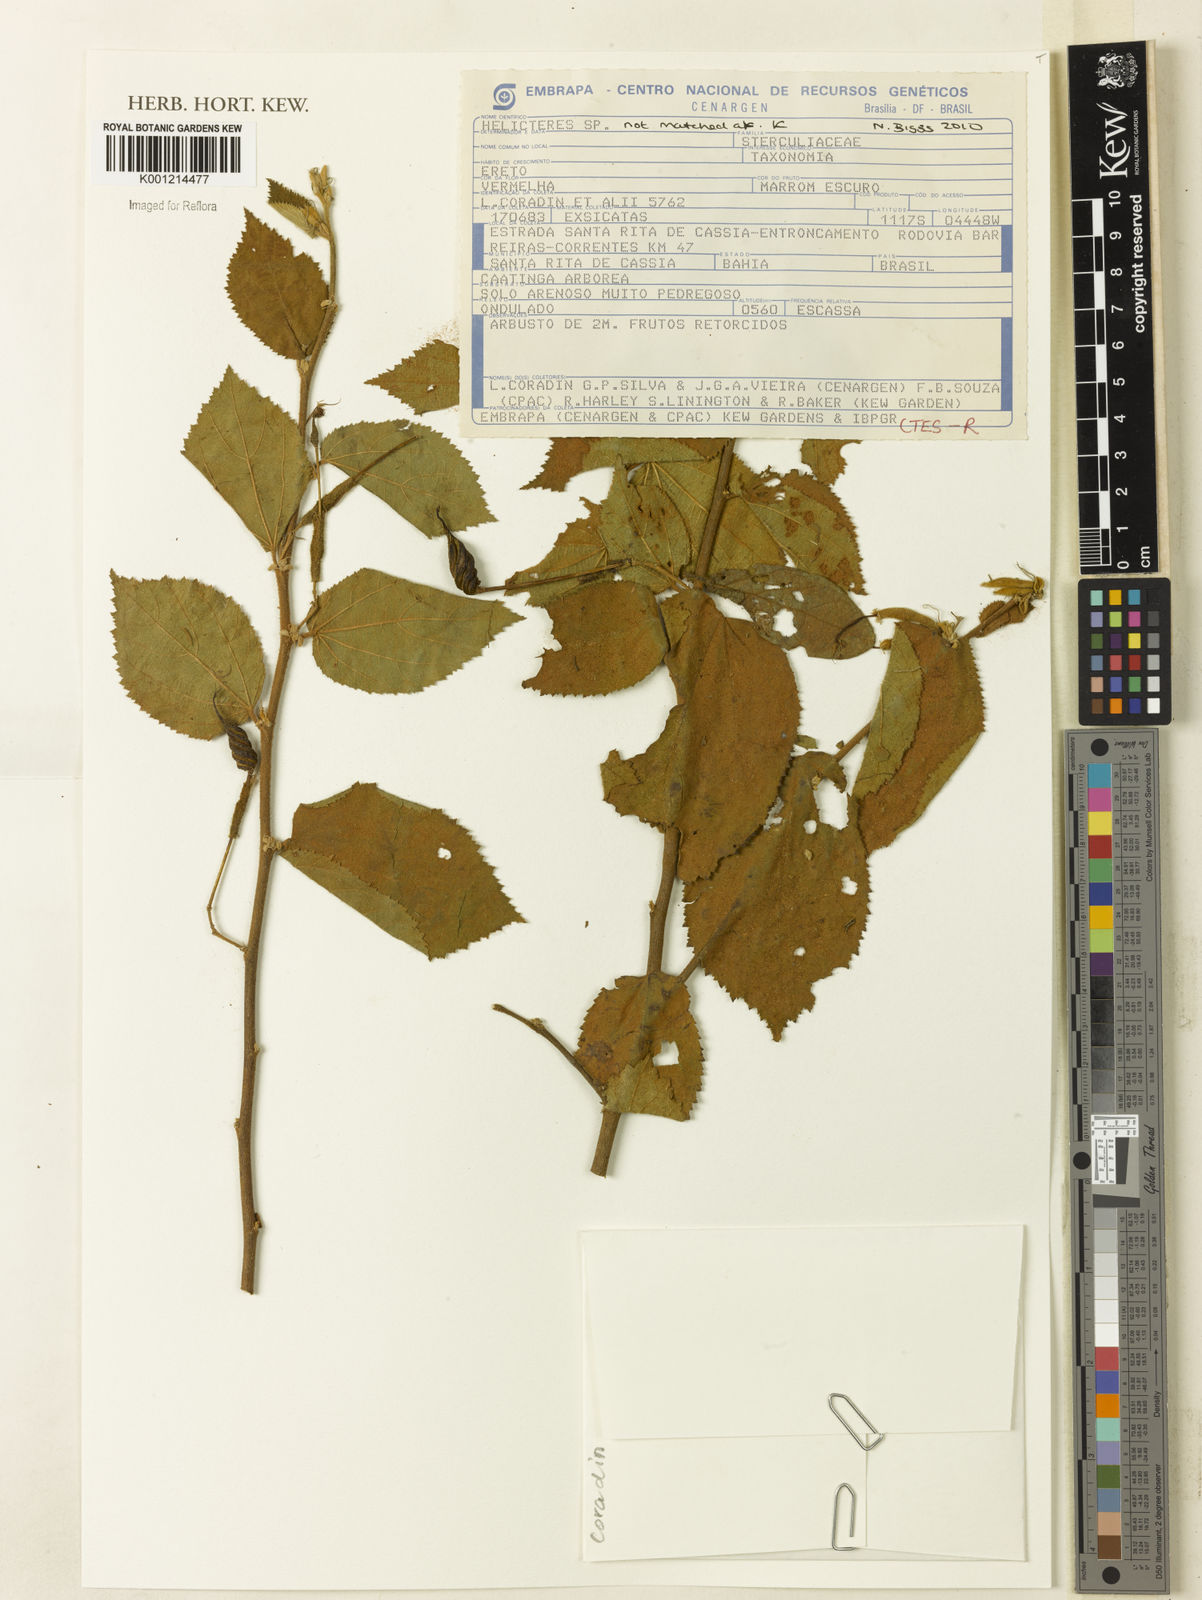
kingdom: Plantae
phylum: Tracheophyta
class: Magnoliopsida
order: Malvales
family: Malvaceae
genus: Helicteres
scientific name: Helicteres
